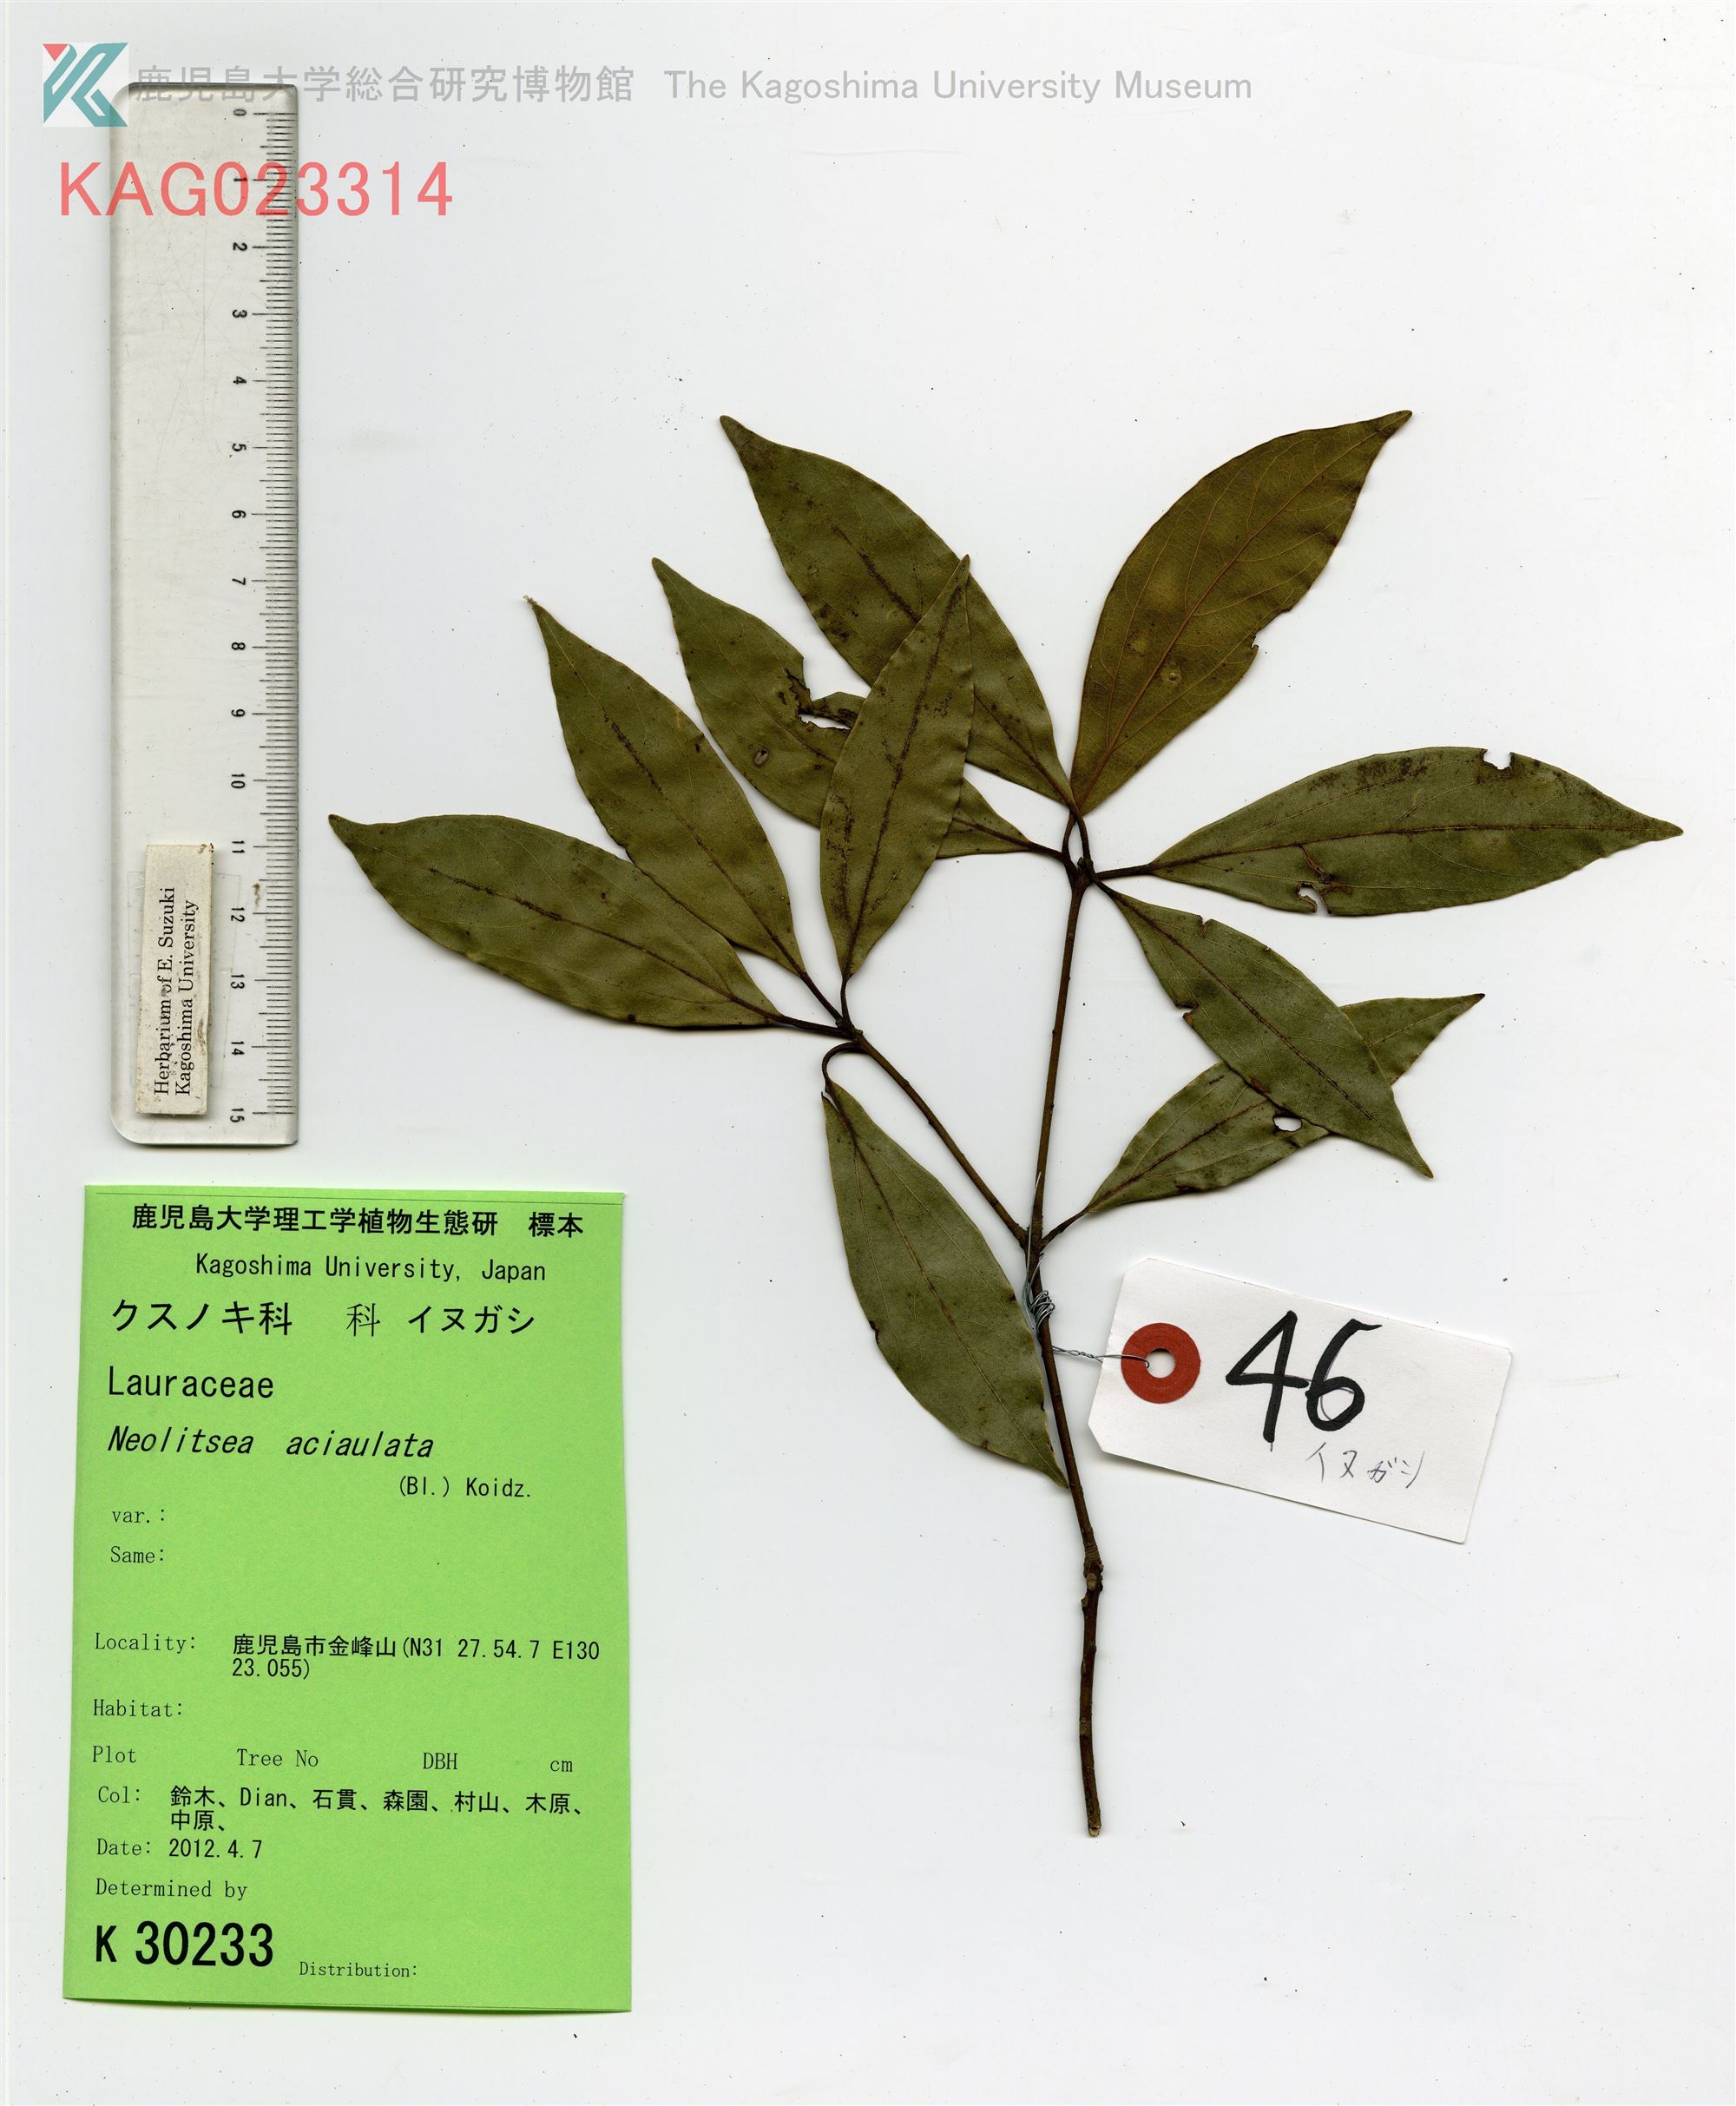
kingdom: Plantae
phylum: Tracheophyta
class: Magnoliopsida
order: Laurales
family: Lauraceae
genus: Neolitsea
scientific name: Neolitsea aciculata
